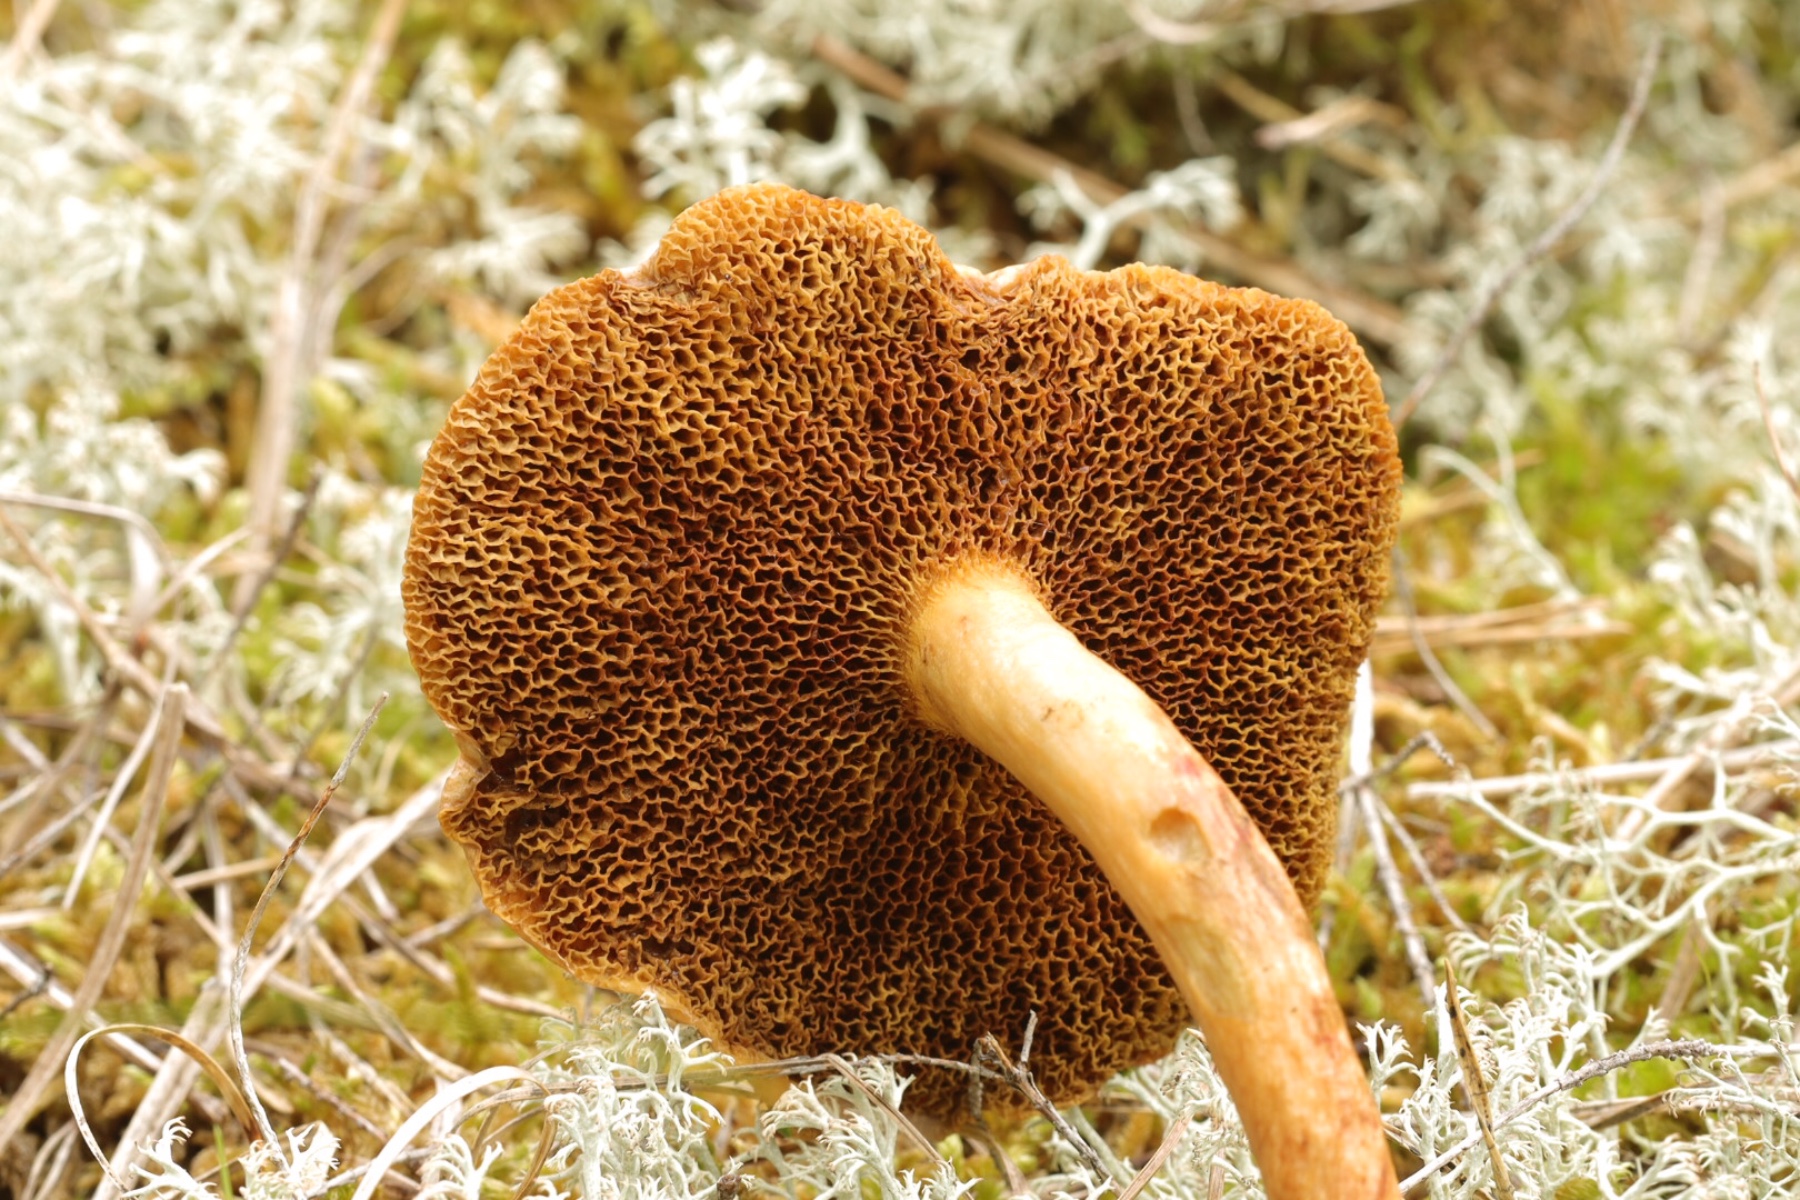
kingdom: Fungi
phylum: Basidiomycota
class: Agaricomycetes
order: Boletales
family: Suillaceae
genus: Suillus
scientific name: Suillus bovinus
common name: grovporet slimrørhat
